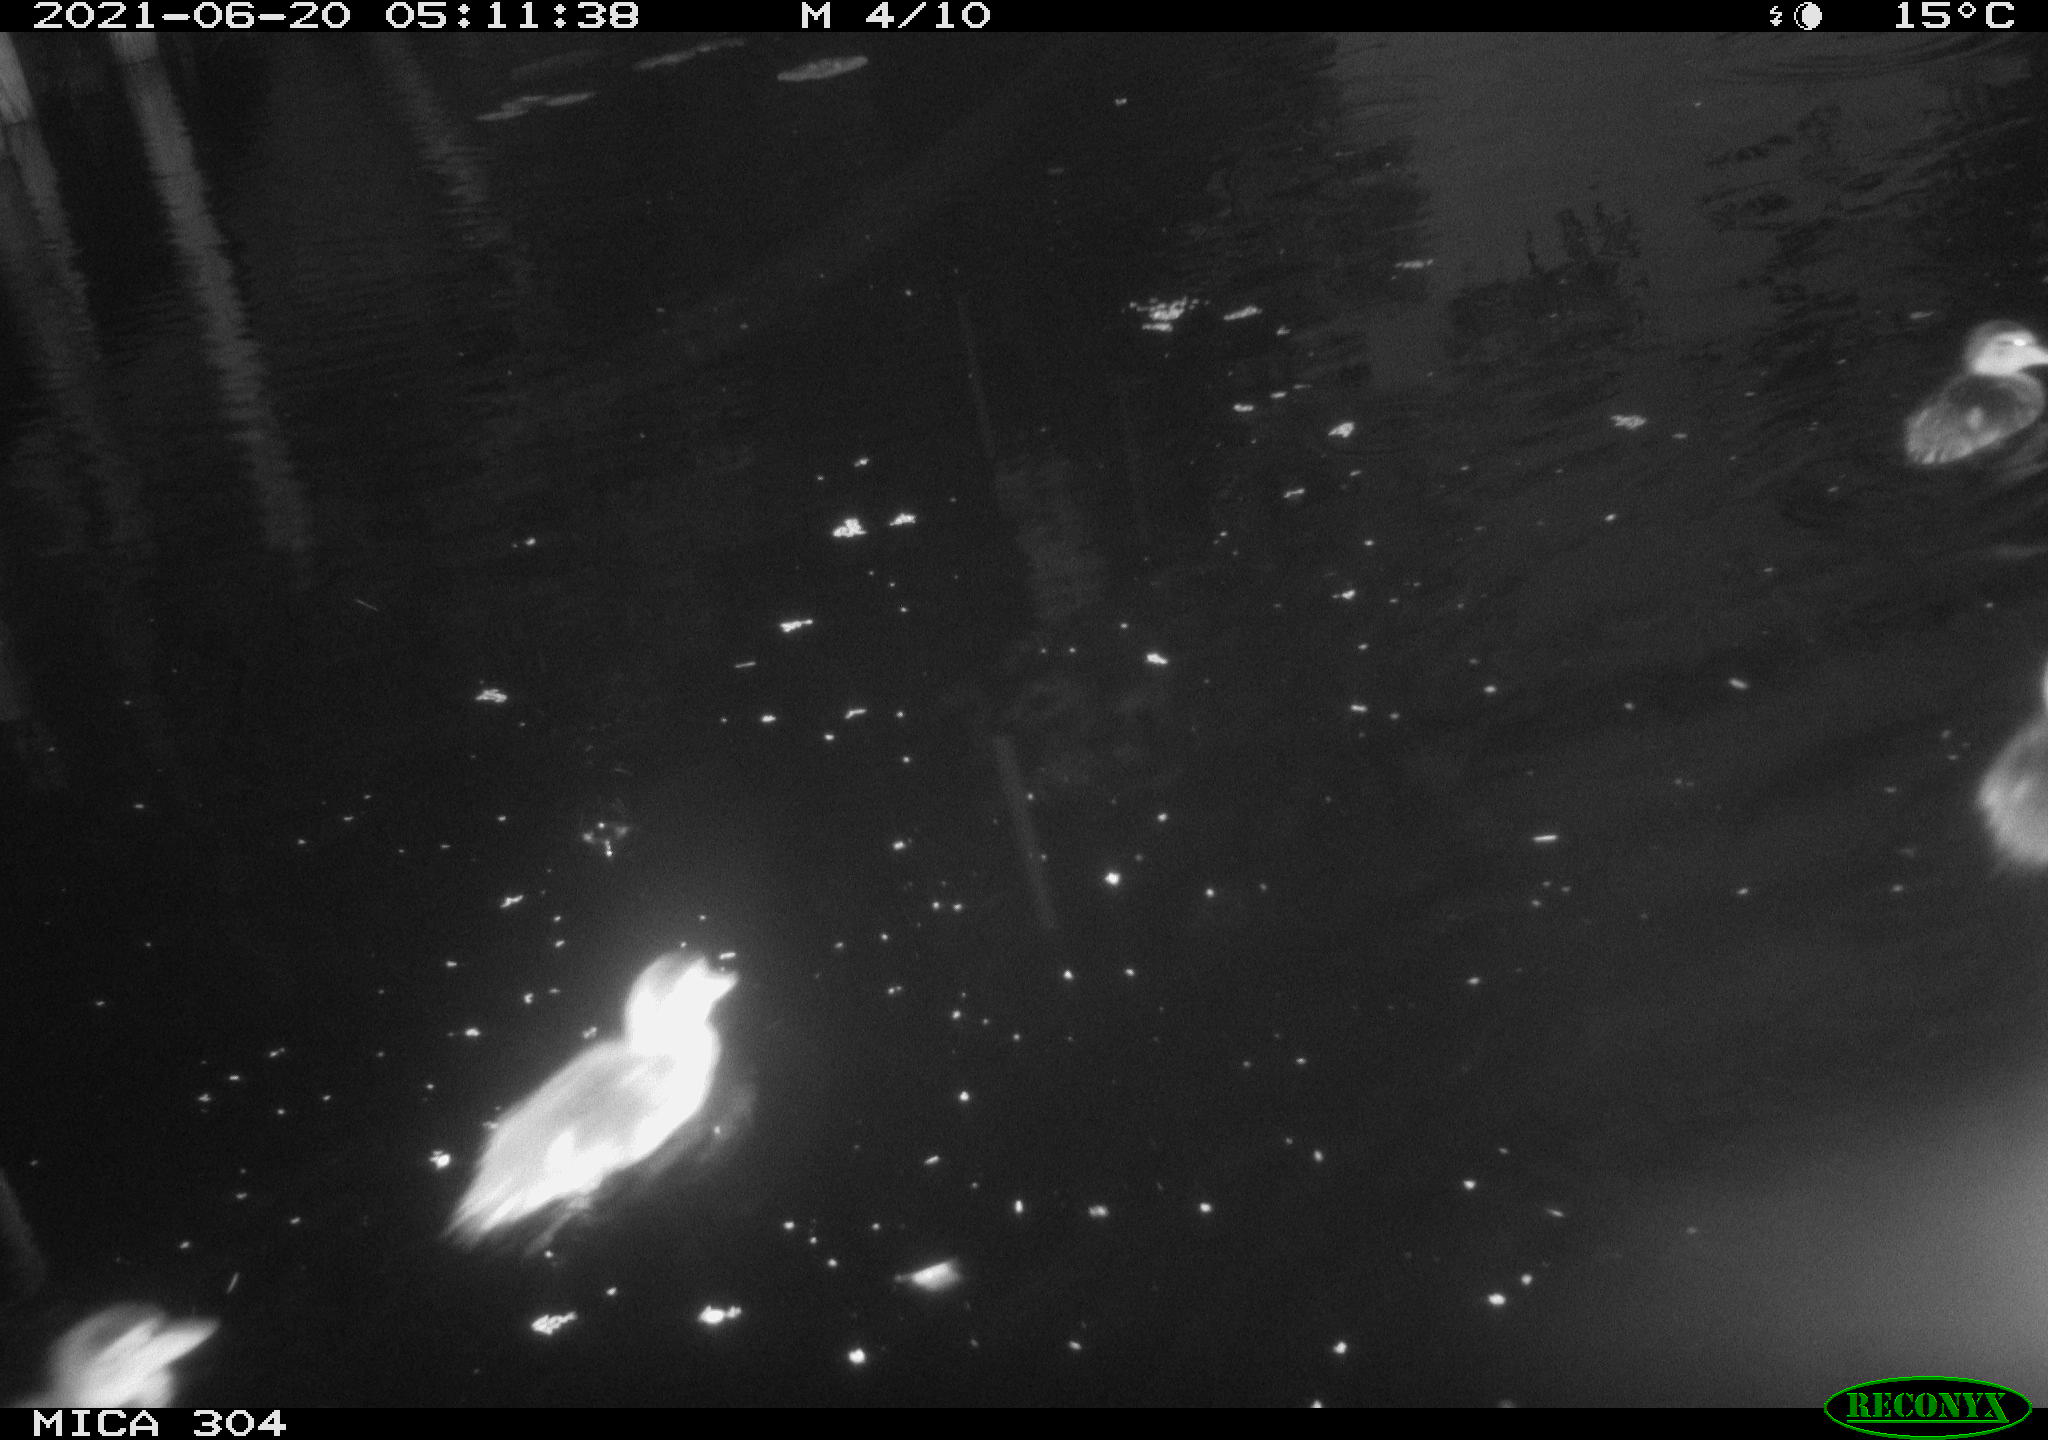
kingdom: Animalia
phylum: Chordata
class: Aves
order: Anseriformes
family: Anatidae
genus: Anas
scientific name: Anas platyrhynchos
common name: Mallard
